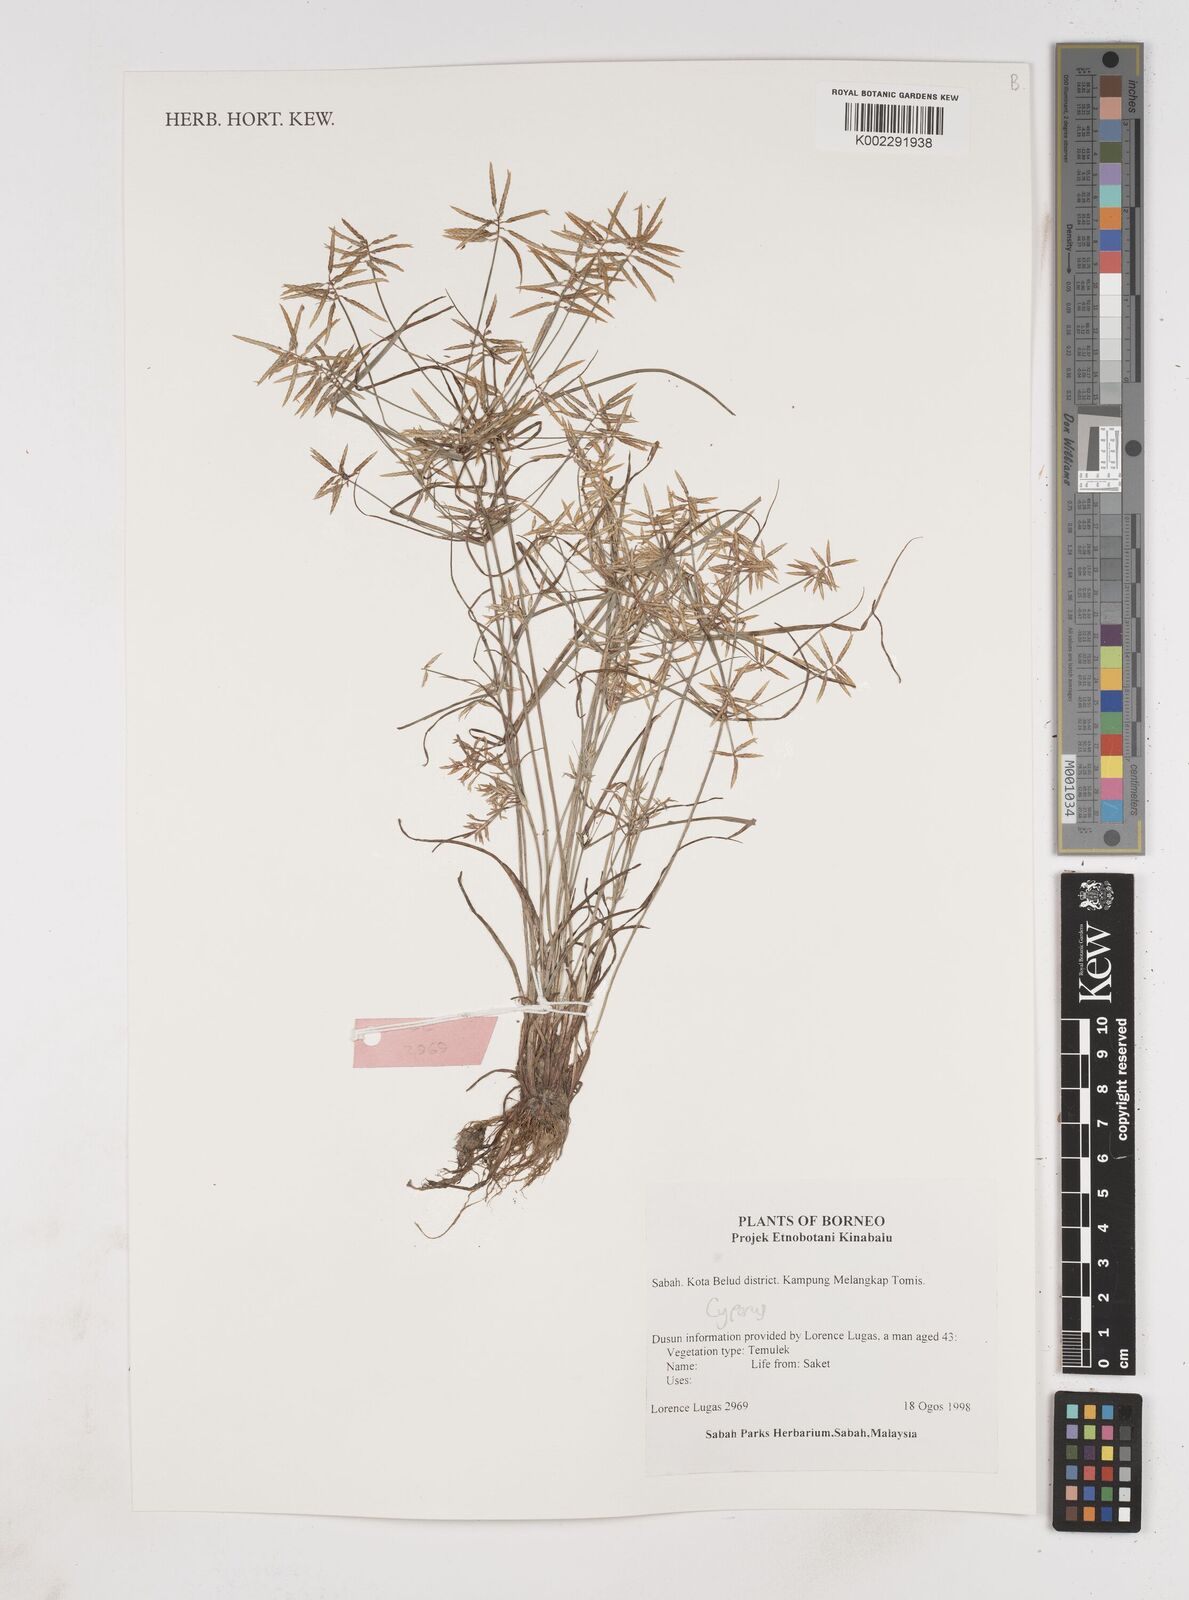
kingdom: Plantae
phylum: Tracheophyta
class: Liliopsida
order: Poales
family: Cyperaceae
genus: Cyperus
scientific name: Cyperus
